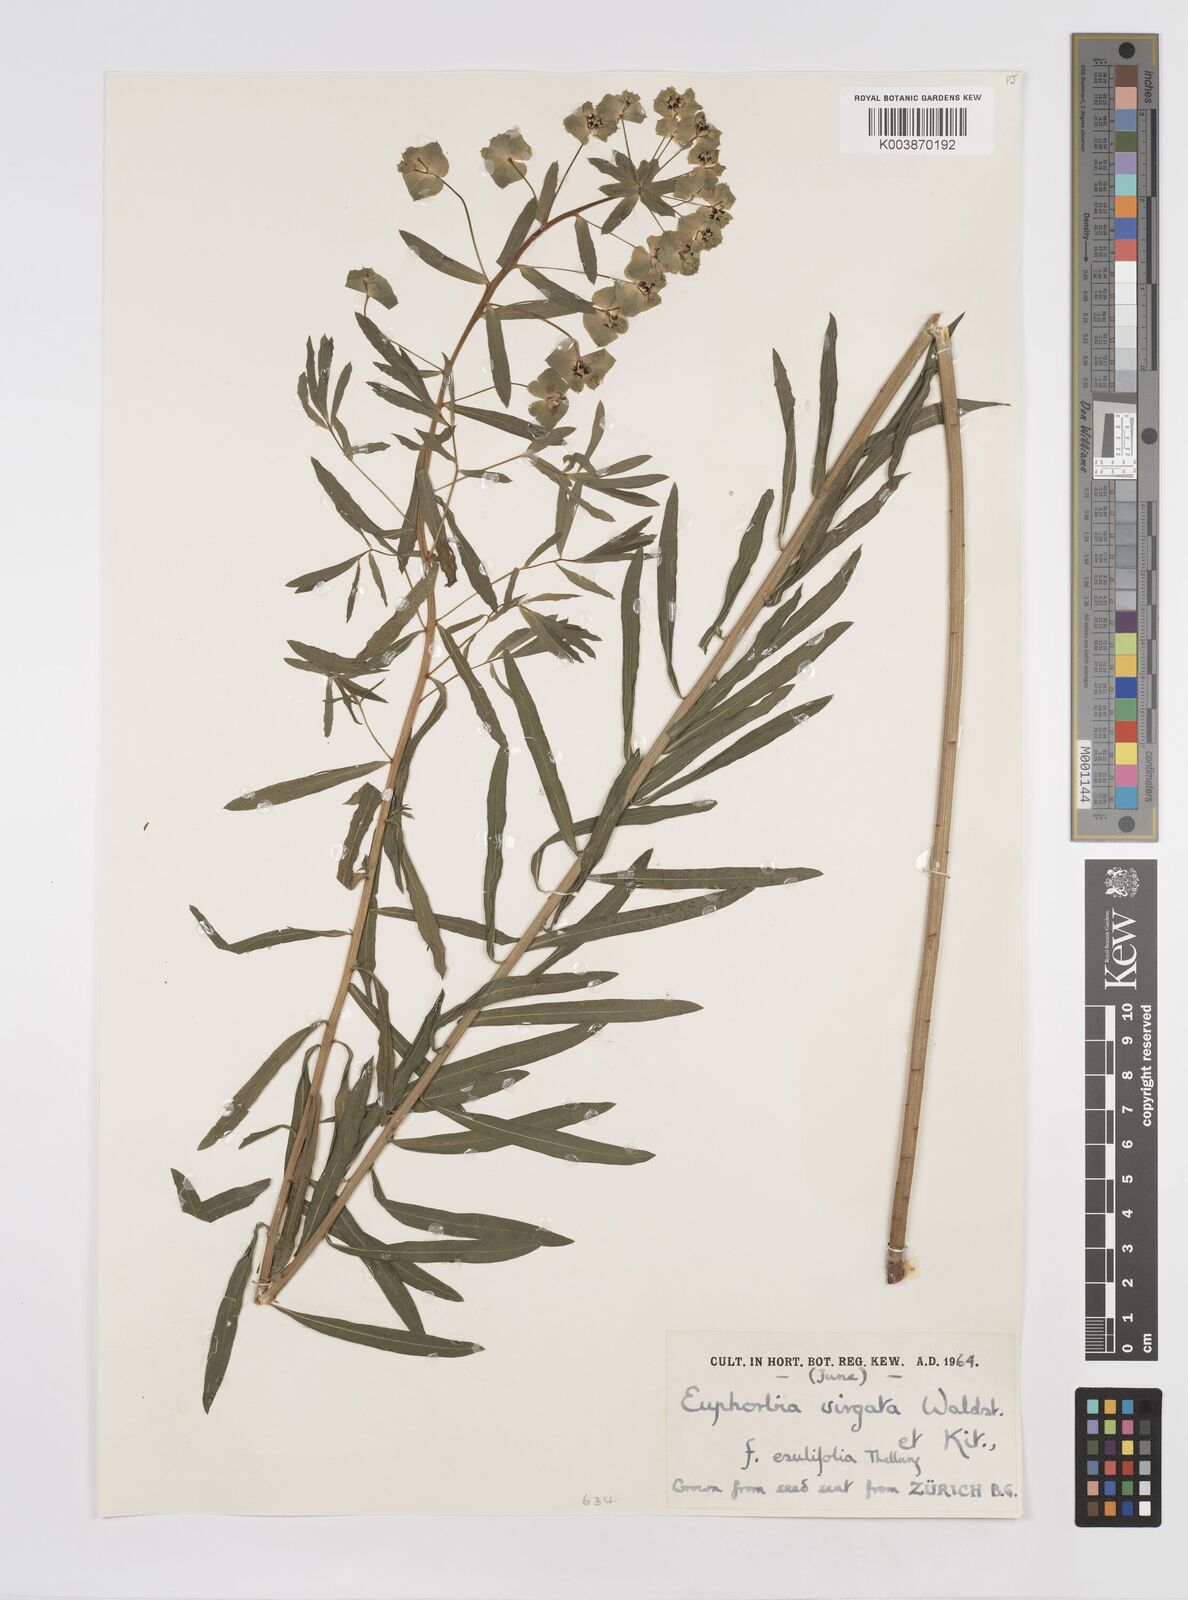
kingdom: Plantae
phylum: Tracheophyta
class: Magnoliopsida
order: Malpighiales
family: Euphorbiaceae
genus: Euphorbia
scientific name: Euphorbia
